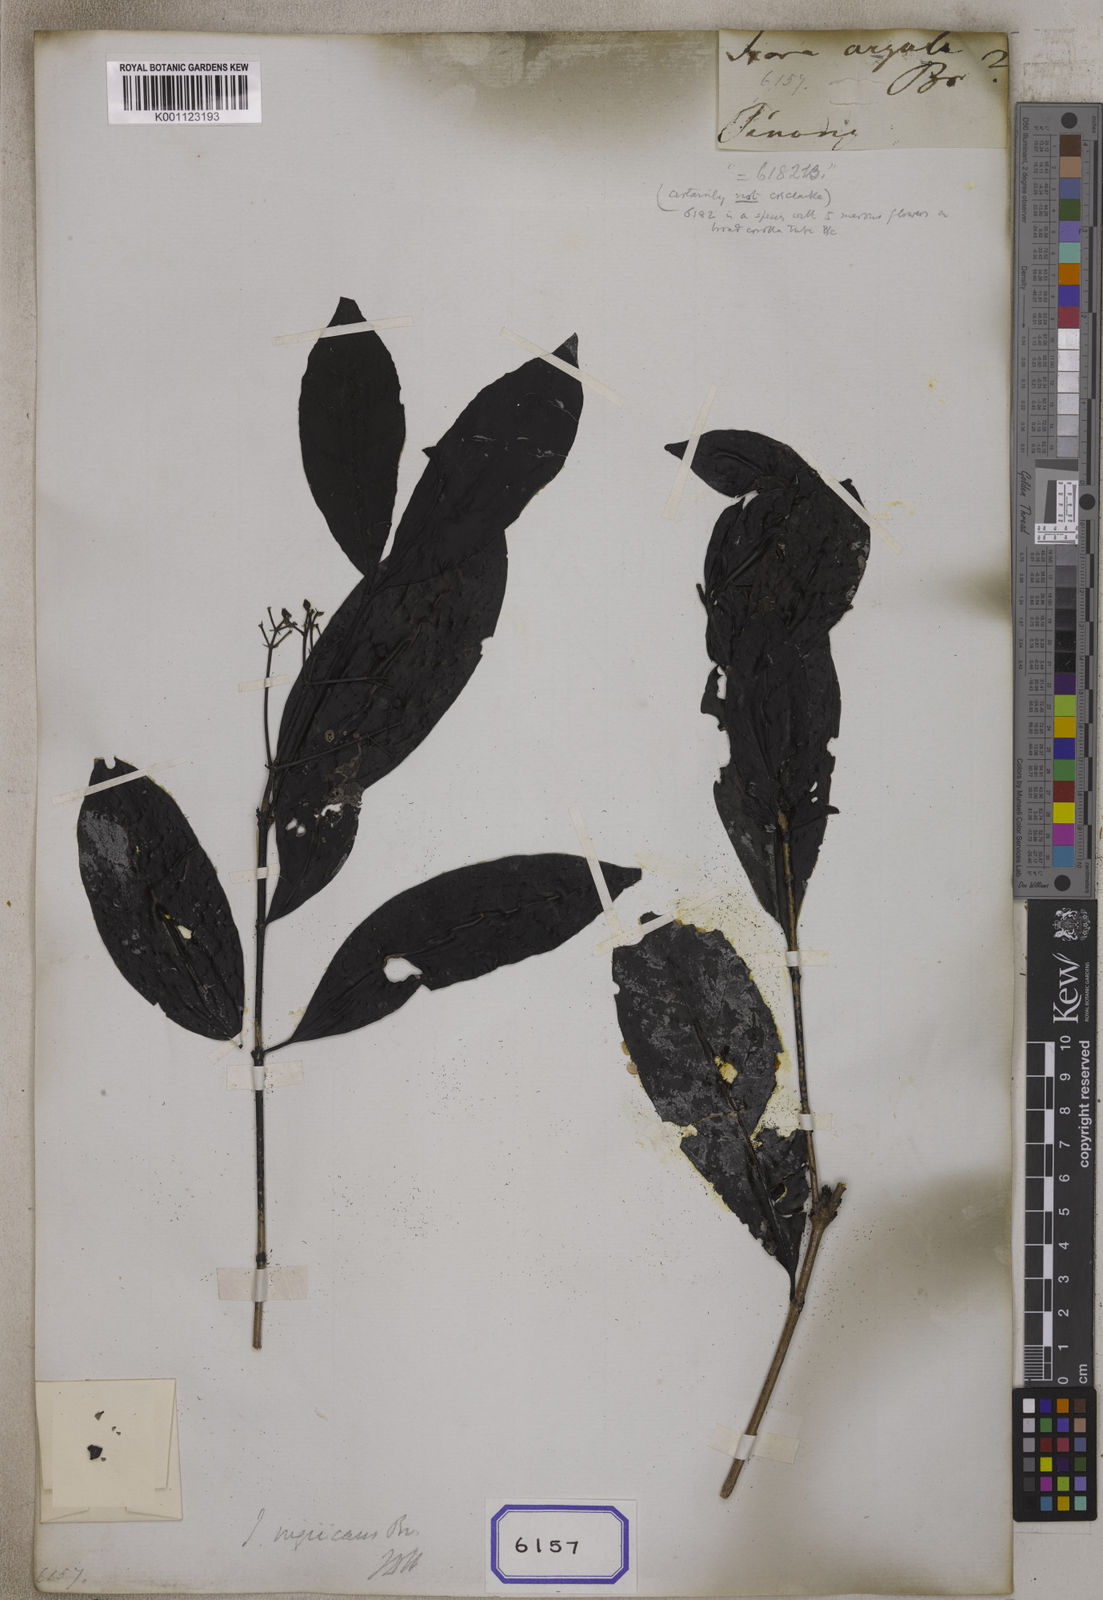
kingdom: Plantae
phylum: Tracheophyta
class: Magnoliopsida
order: Gentianales
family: Rubiaceae
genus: Ixora
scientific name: Ixora
